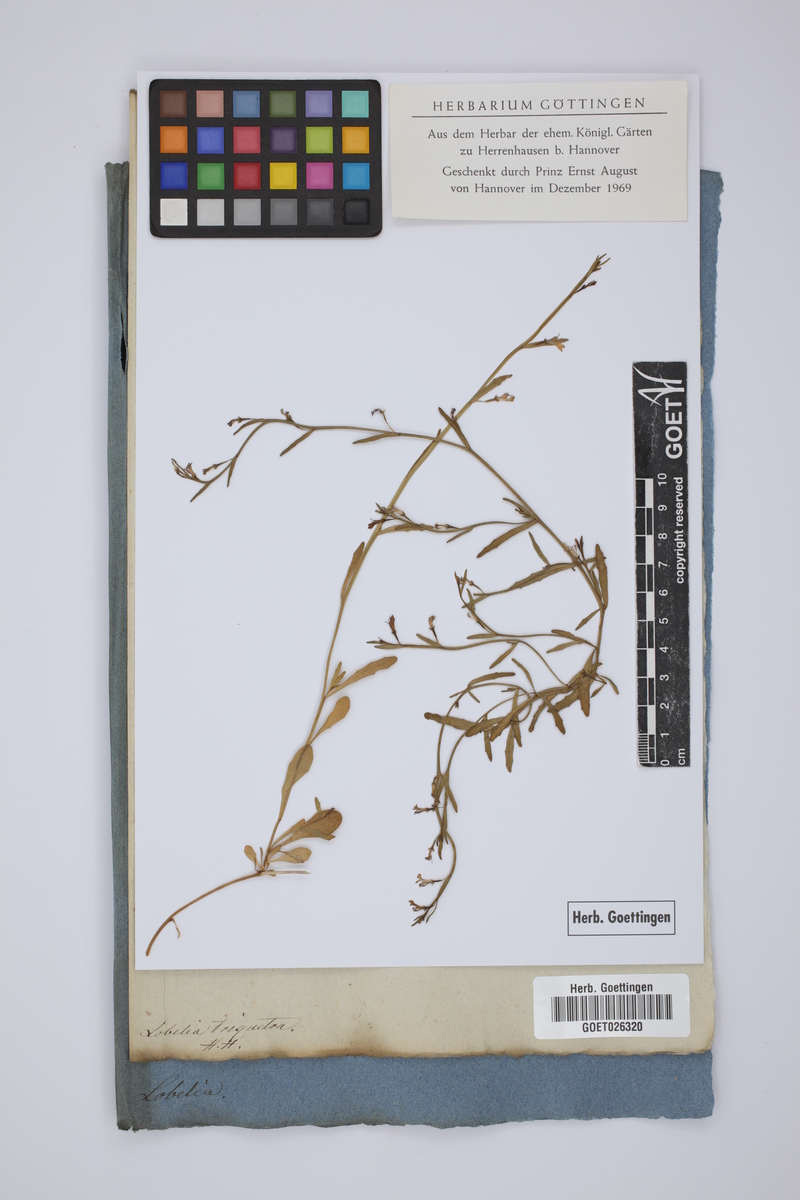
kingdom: Plantae
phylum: Tracheophyta
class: Magnoliopsida
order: Asterales
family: Campanulaceae
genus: Lobelia
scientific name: Lobelia comosa
